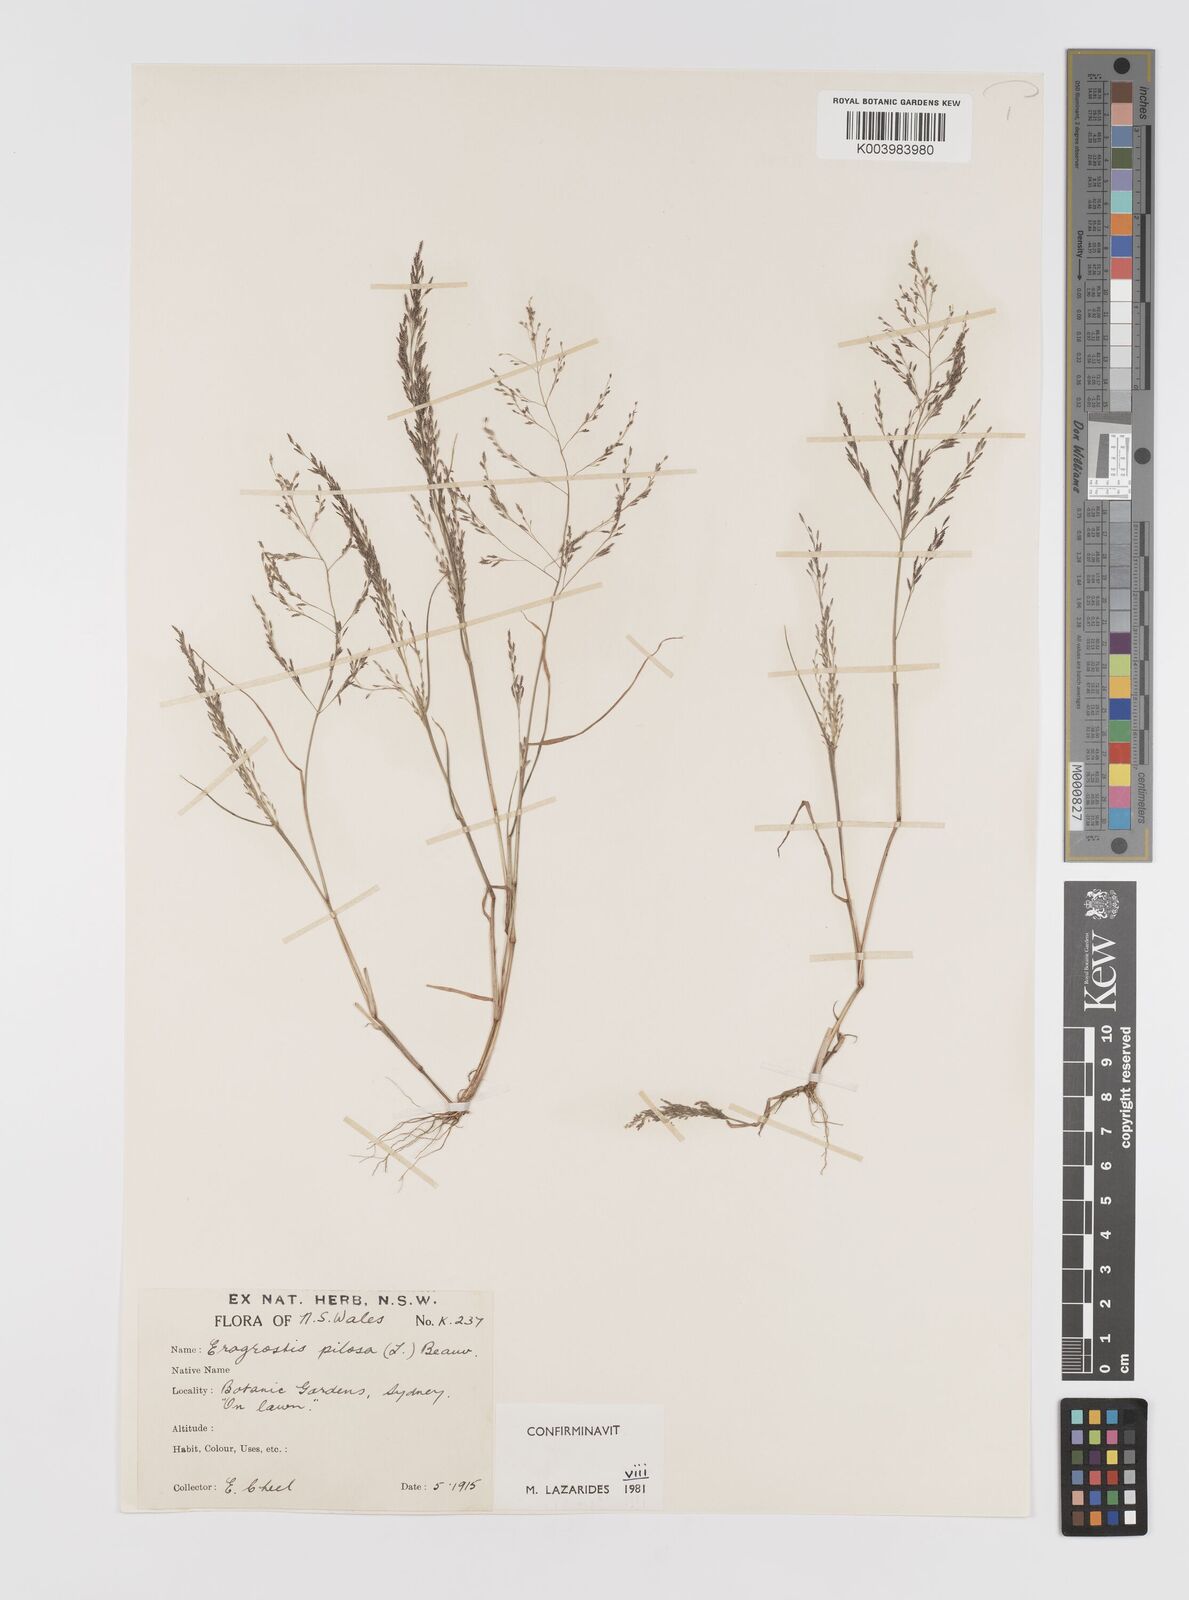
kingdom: Plantae
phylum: Tracheophyta
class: Liliopsida
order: Poales
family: Poaceae
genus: Eragrostis
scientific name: Eragrostis pilosa
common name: Indian lovegrass
